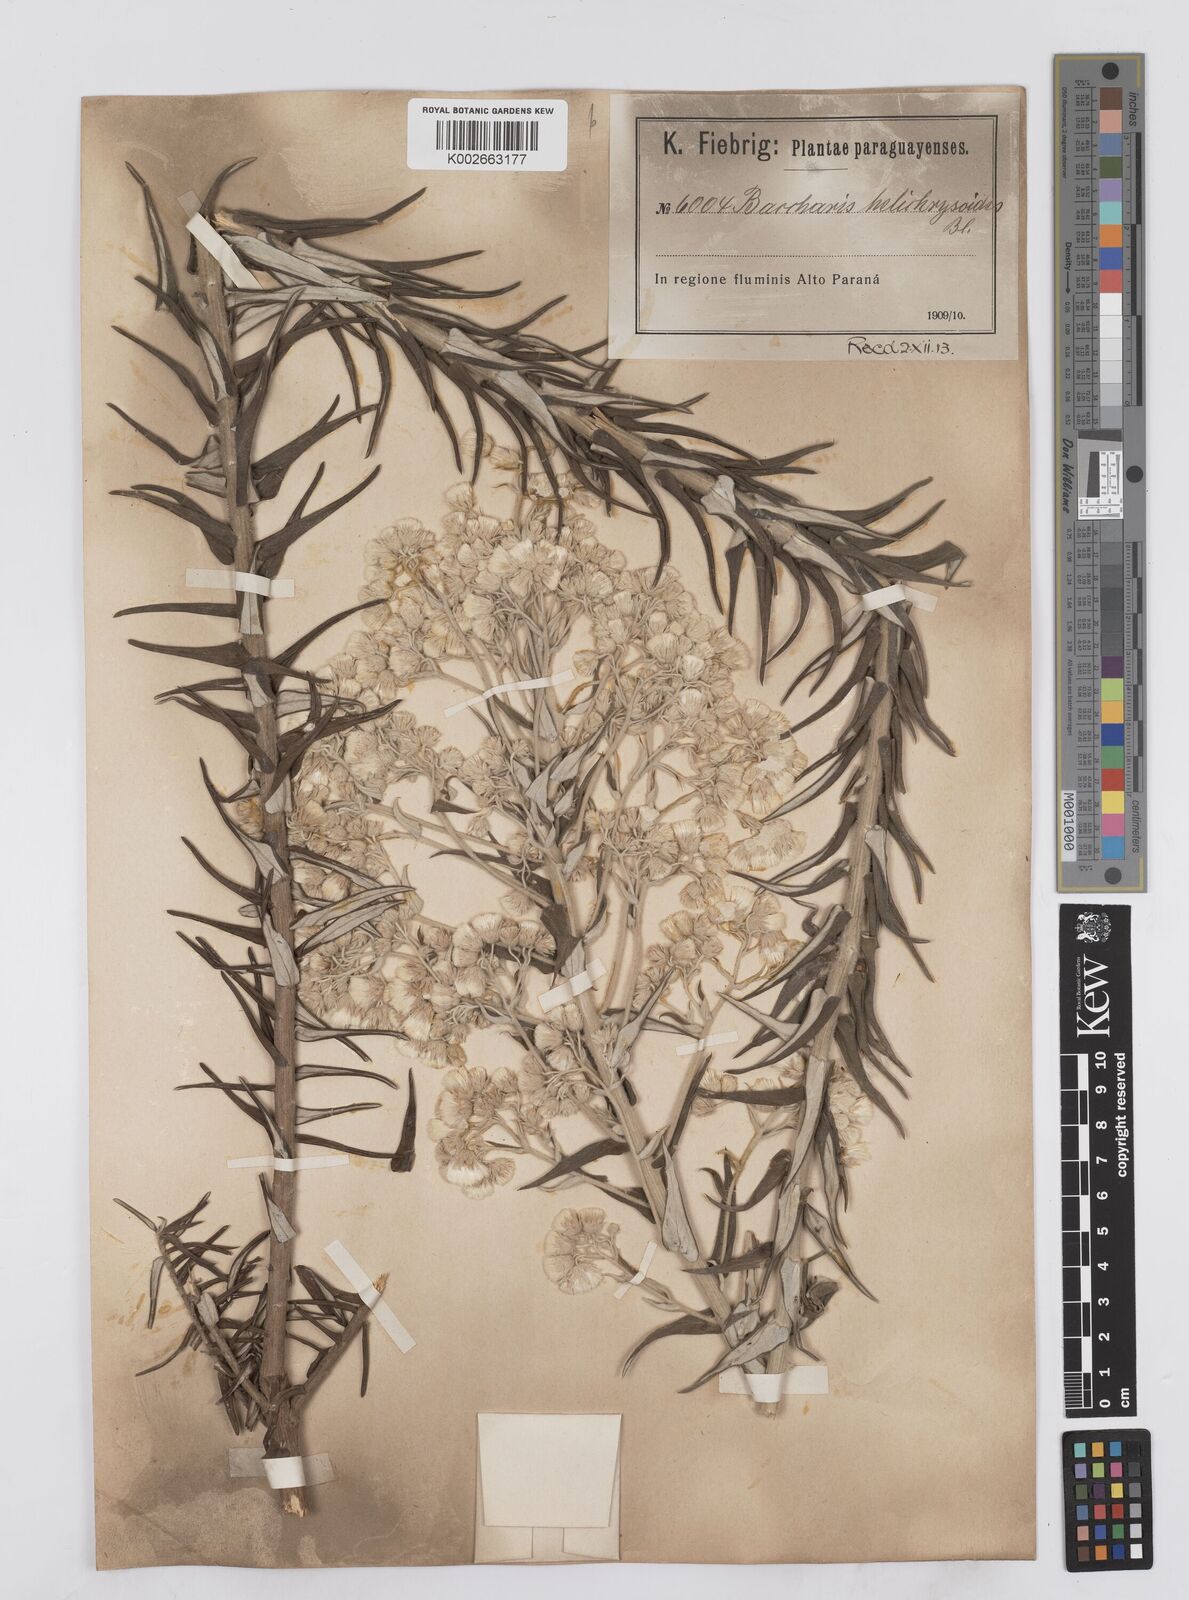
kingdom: Plantae
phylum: Tracheophyta
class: Magnoliopsida
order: Asterales
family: Asteraceae
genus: Baccharis
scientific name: Baccharis helichrysoides
